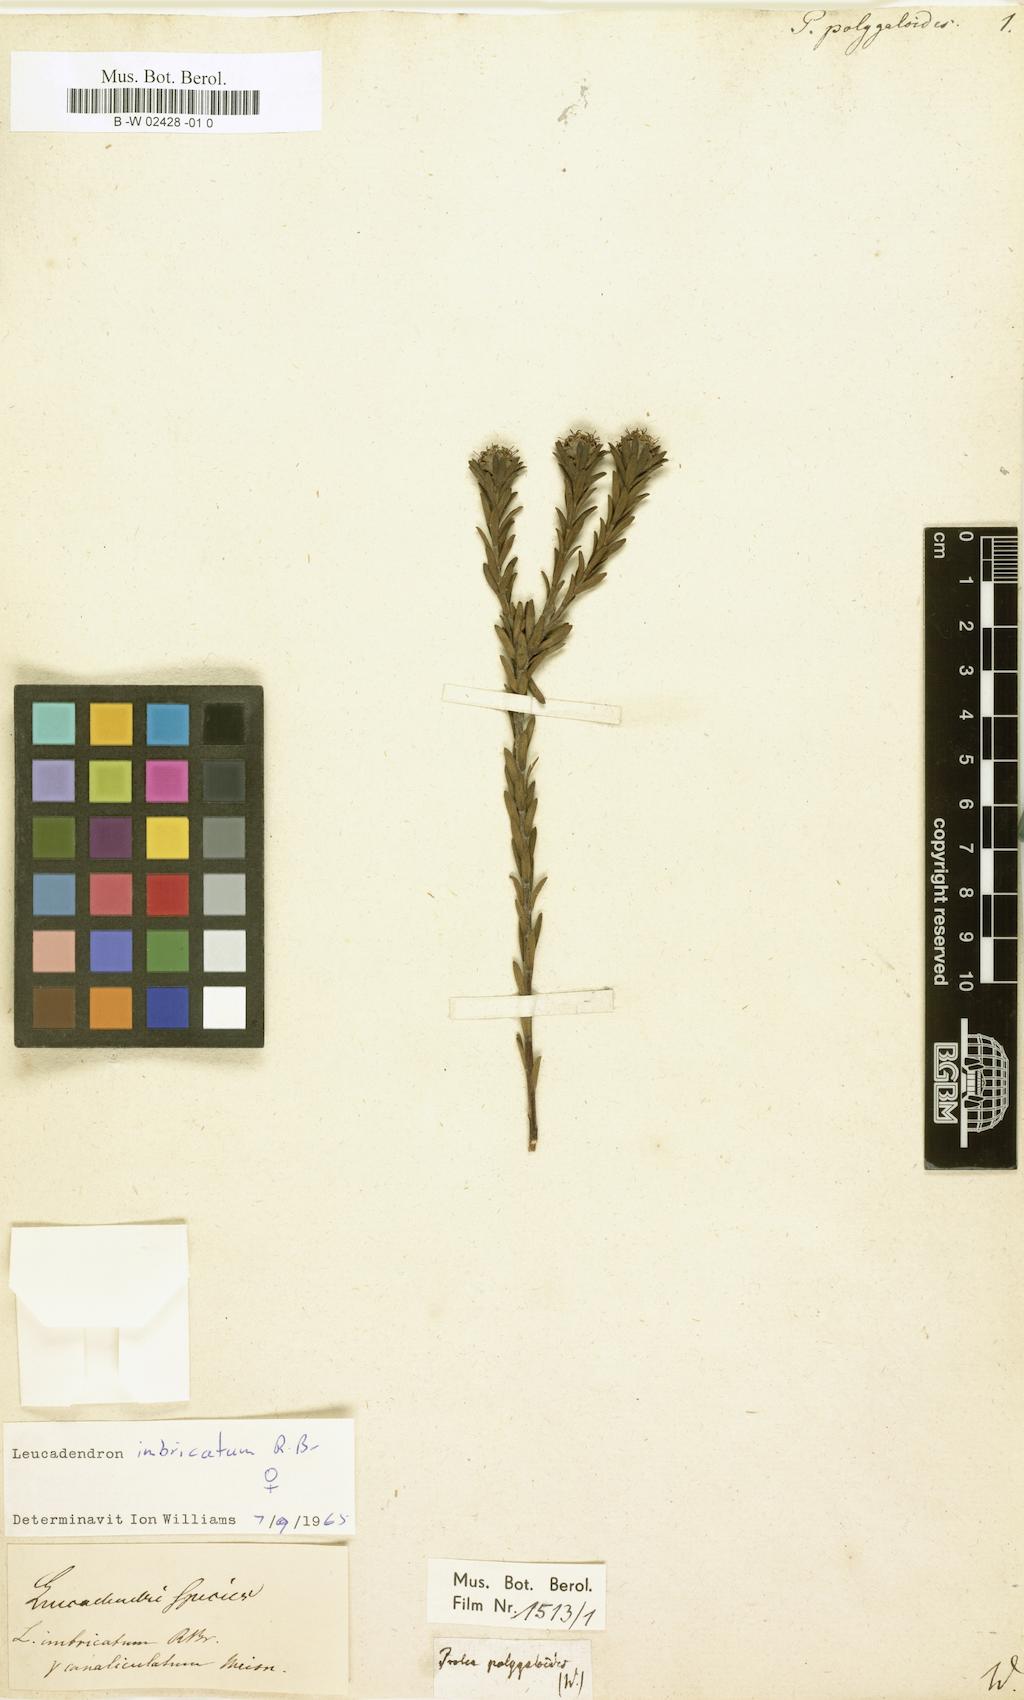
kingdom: Plantae
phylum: Tracheophyta
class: Magnoliopsida
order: Proteales
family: Proteaceae
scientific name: Proteaceae
